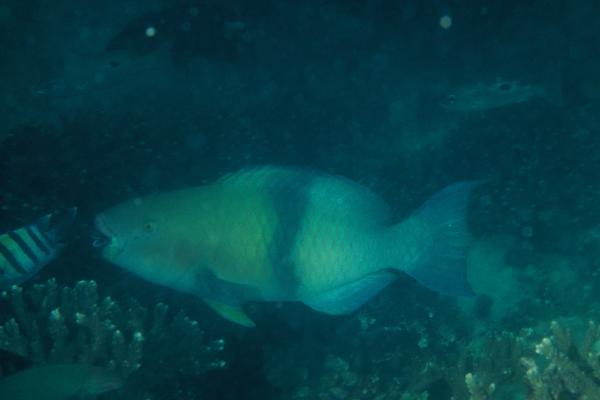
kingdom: Animalia
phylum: Chordata
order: Perciformes
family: Scaridae
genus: Scarus
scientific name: Scarus persicus
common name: Gulf parrotfish
